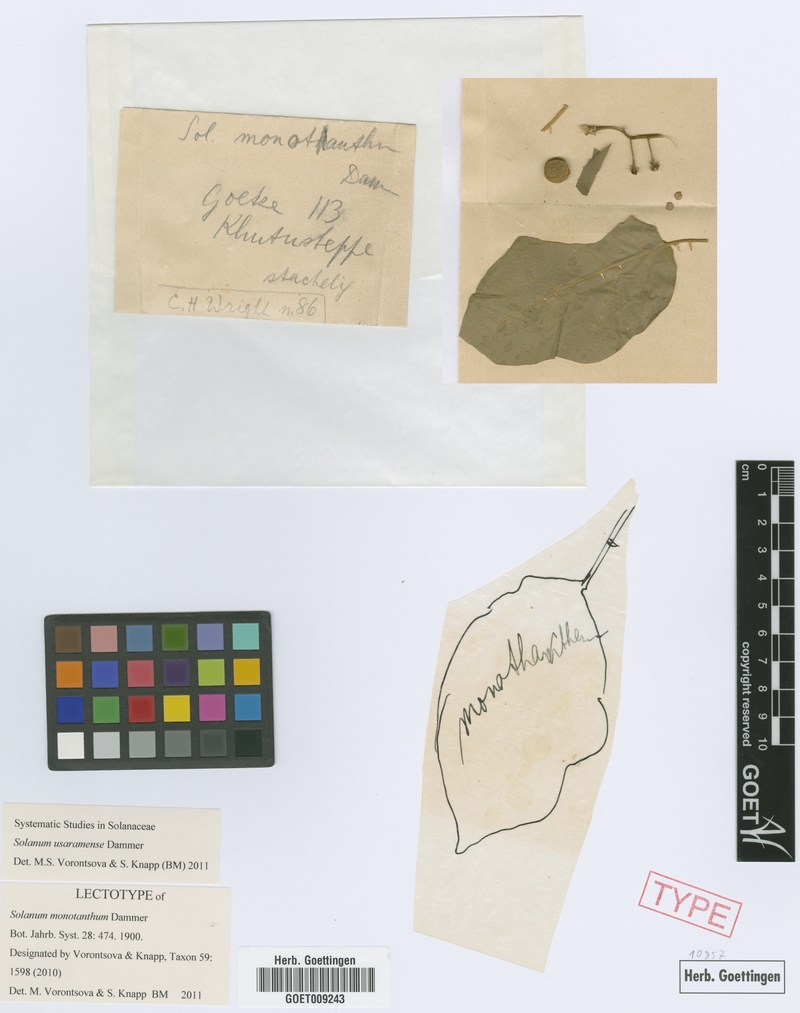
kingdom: Plantae
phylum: Tracheophyta
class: Magnoliopsida
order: Solanales
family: Solanaceae
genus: Solanum
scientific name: Solanum usaramense
